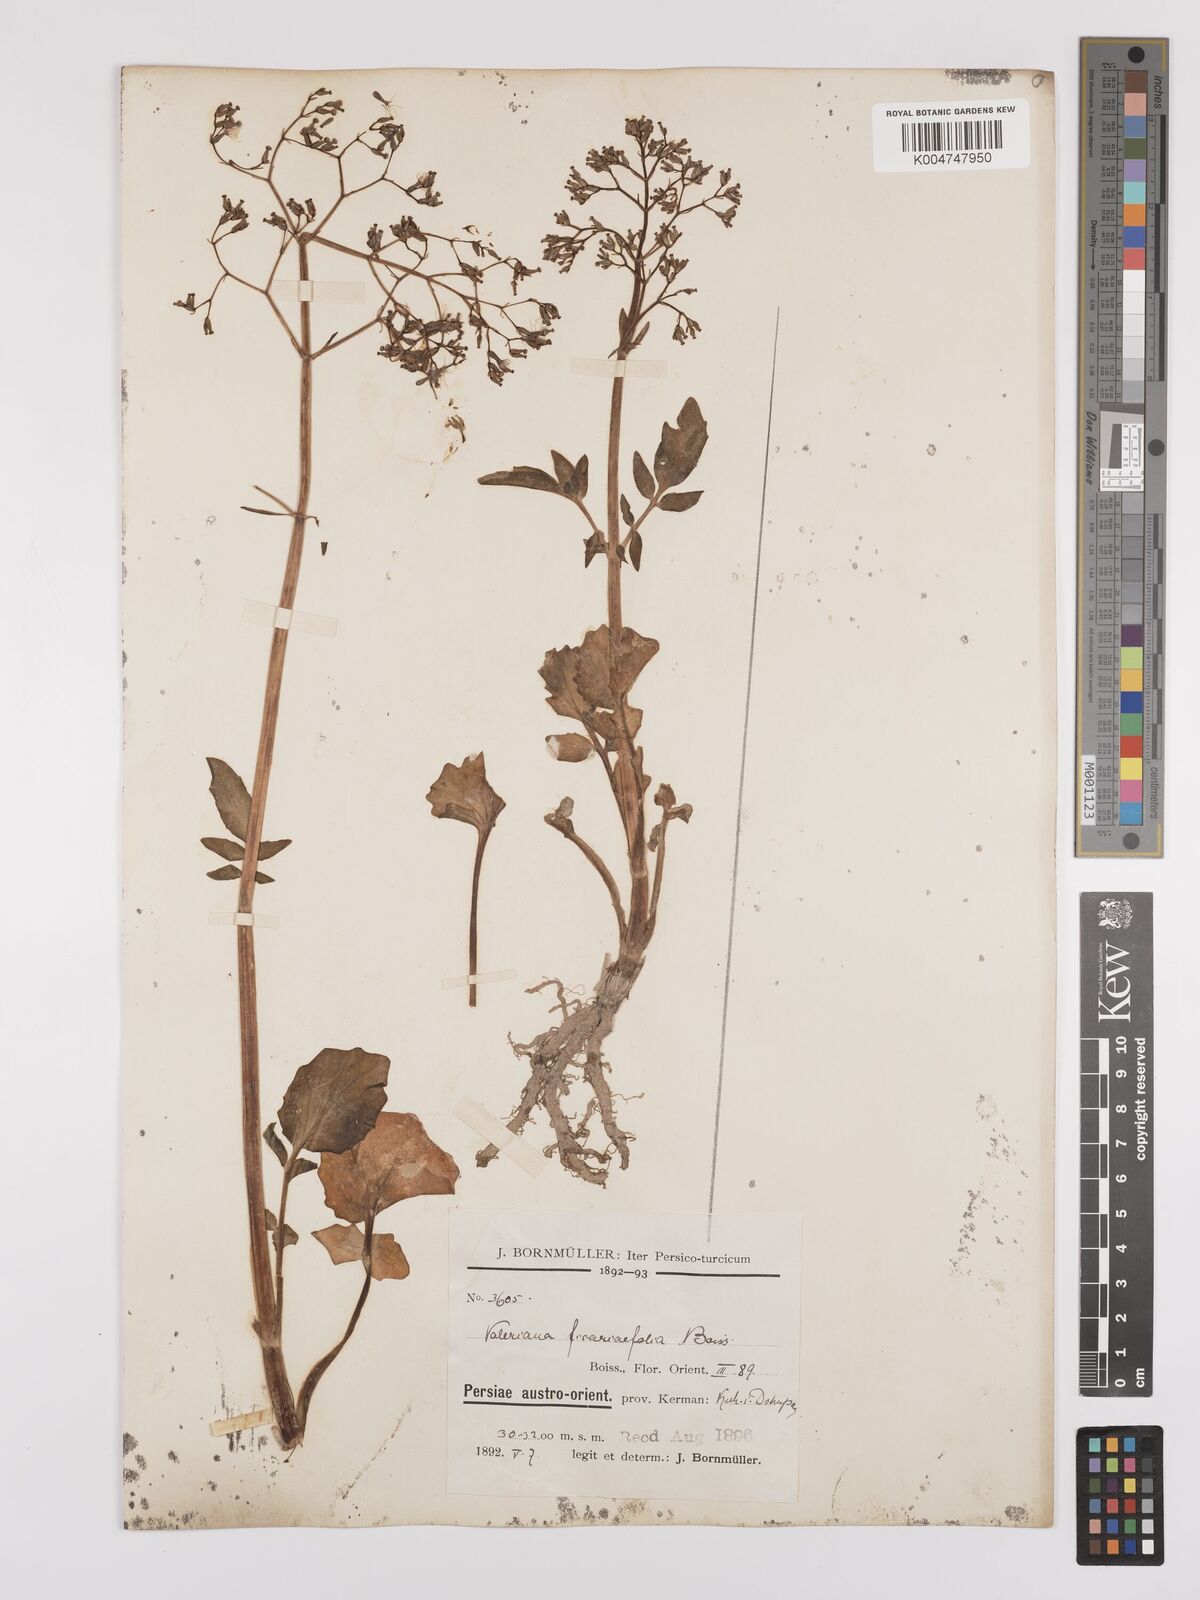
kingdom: Plantae
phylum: Tracheophyta
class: Magnoliopsida
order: Dipsacales
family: Caprifoliaceae
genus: Valeriana
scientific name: Valeriana ficariifolia
